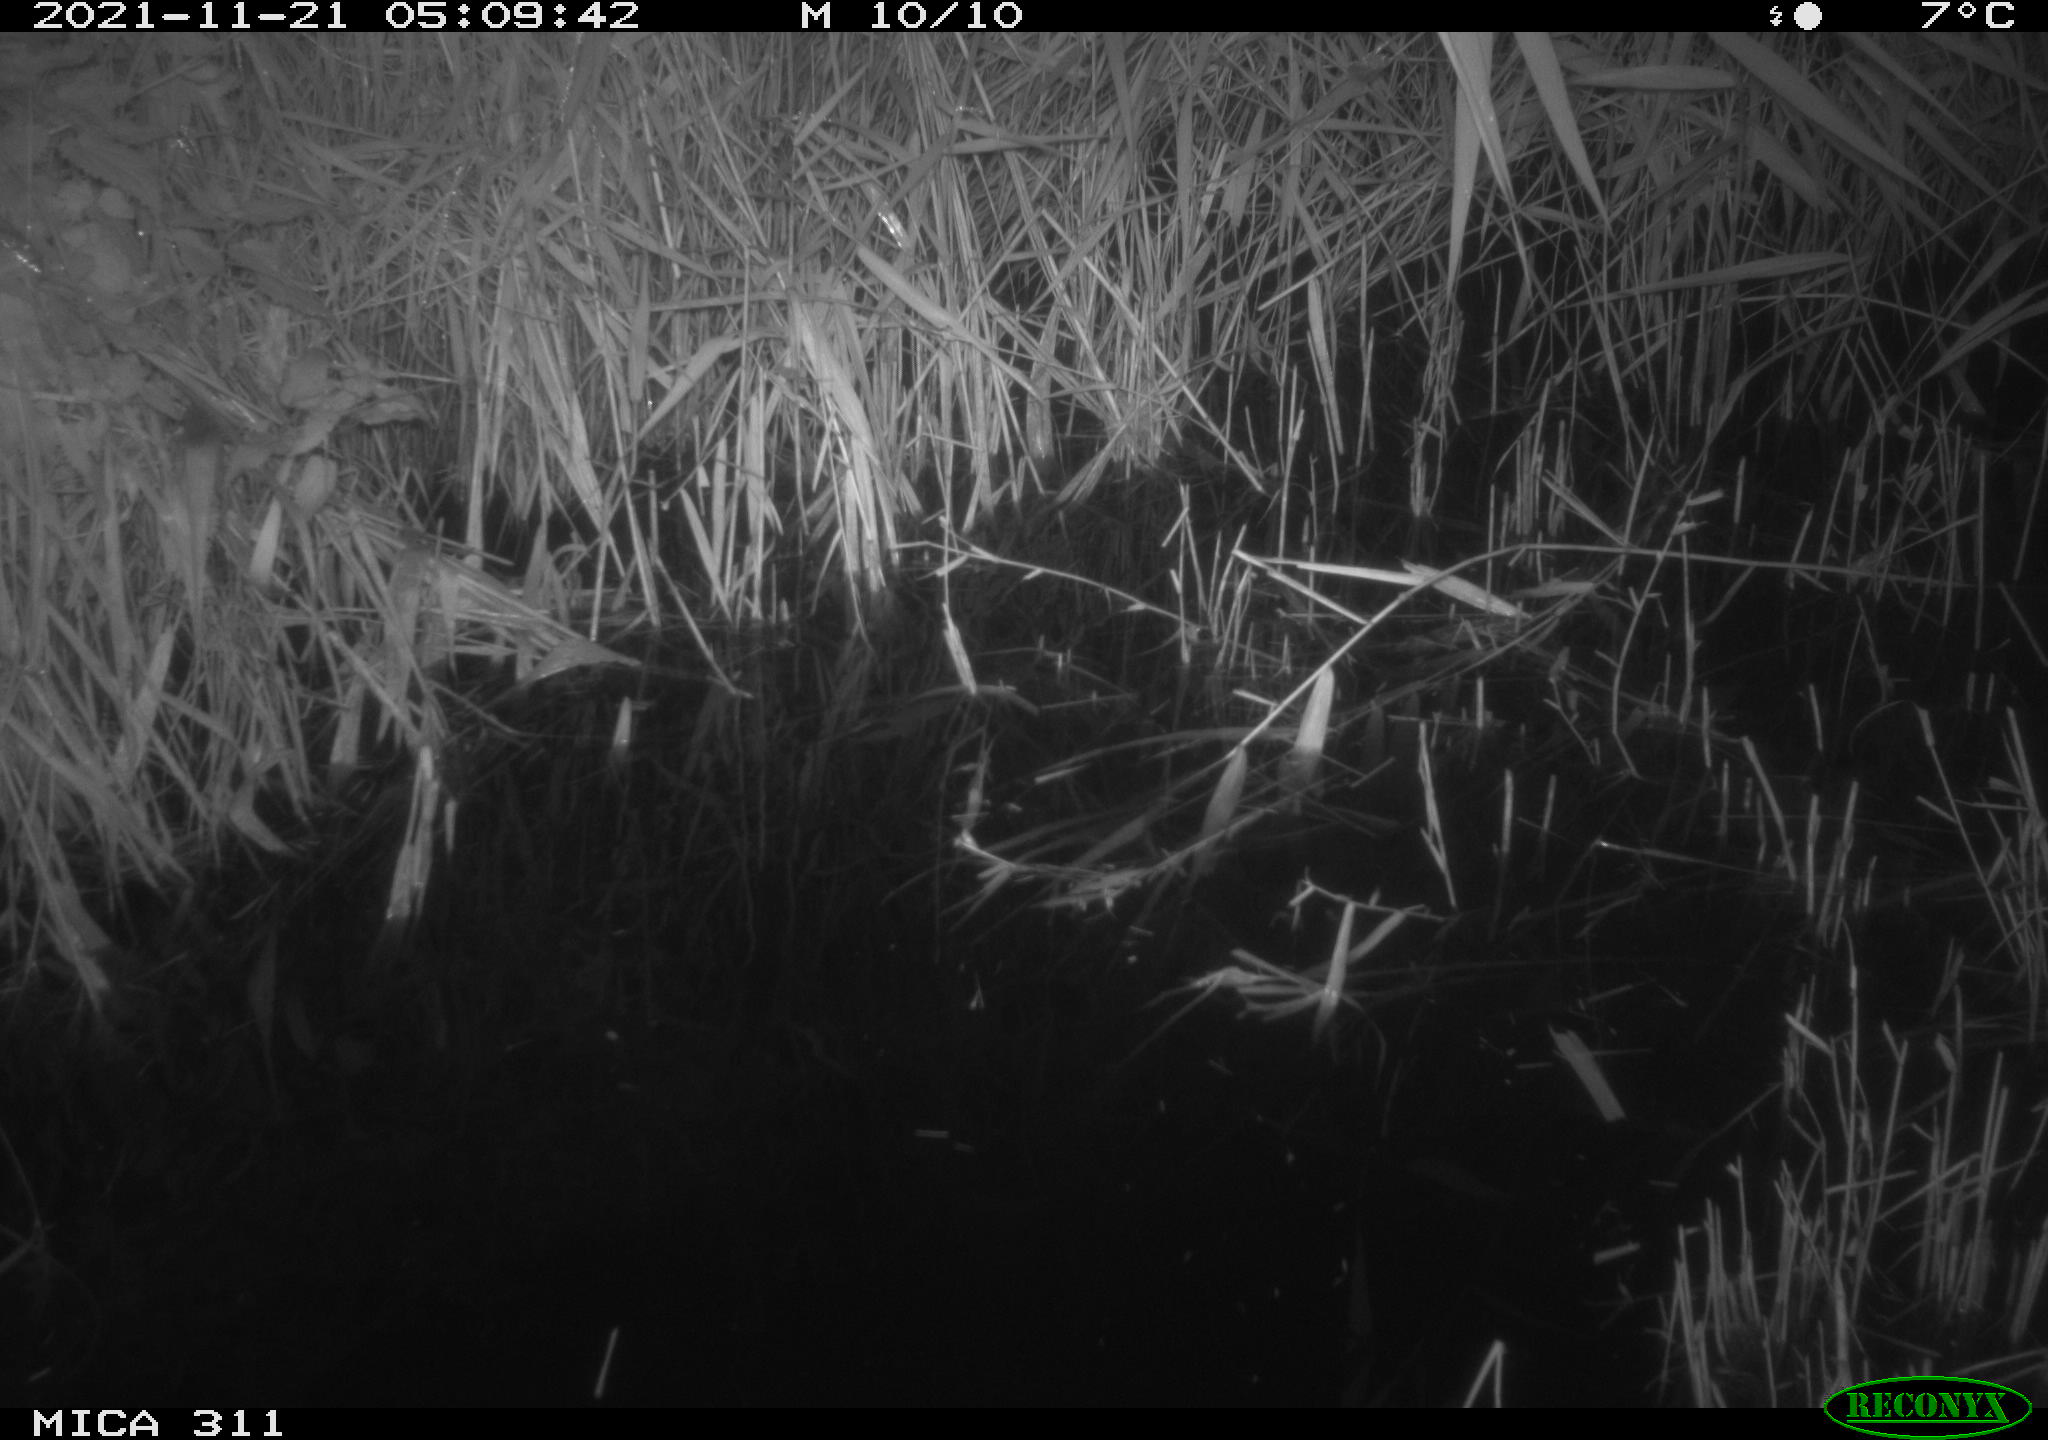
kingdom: Animalia
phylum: Chordata
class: Mammalia
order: Rodentia
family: Muridae
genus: Rattus
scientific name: Rattus norvegicus
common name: Brown rat
